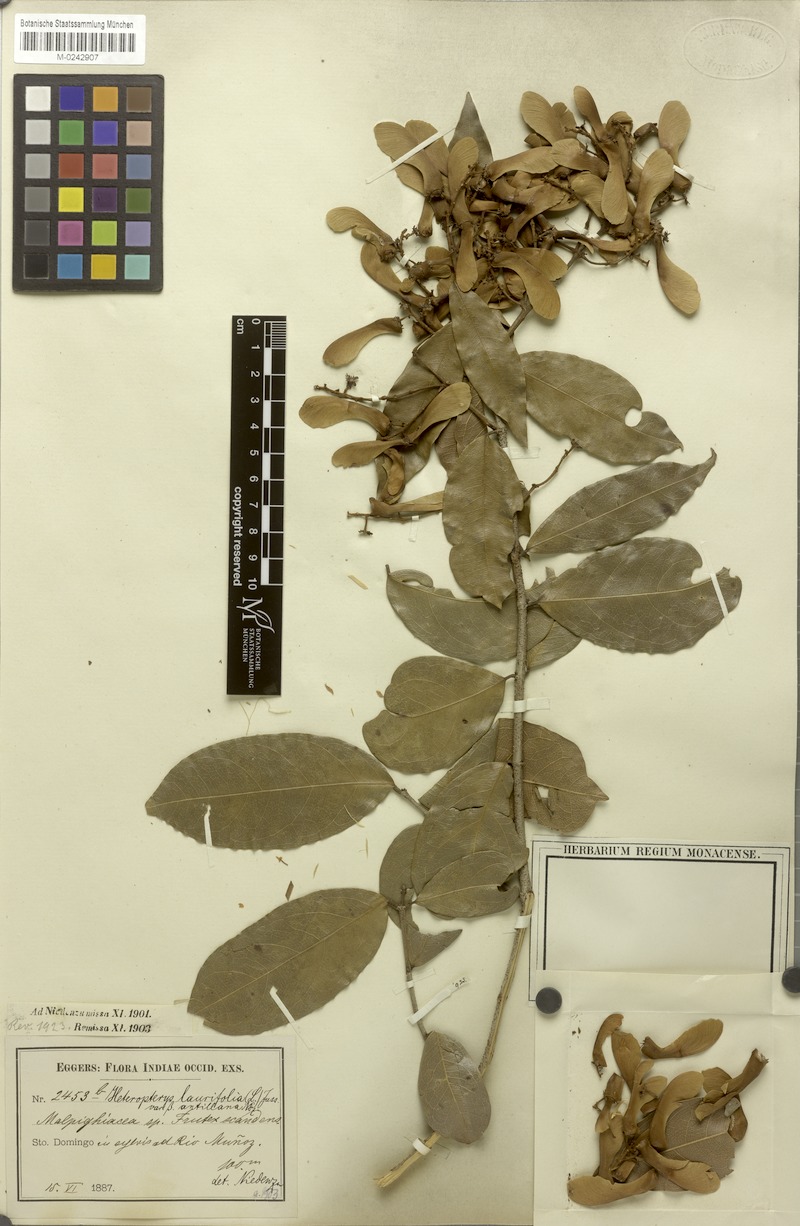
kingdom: Plantae
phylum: Tracheophyta
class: Magnoliopsida
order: Malpighiales
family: Malpighiaceae
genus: Heteropterys
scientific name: Heteropterys laurifolia
